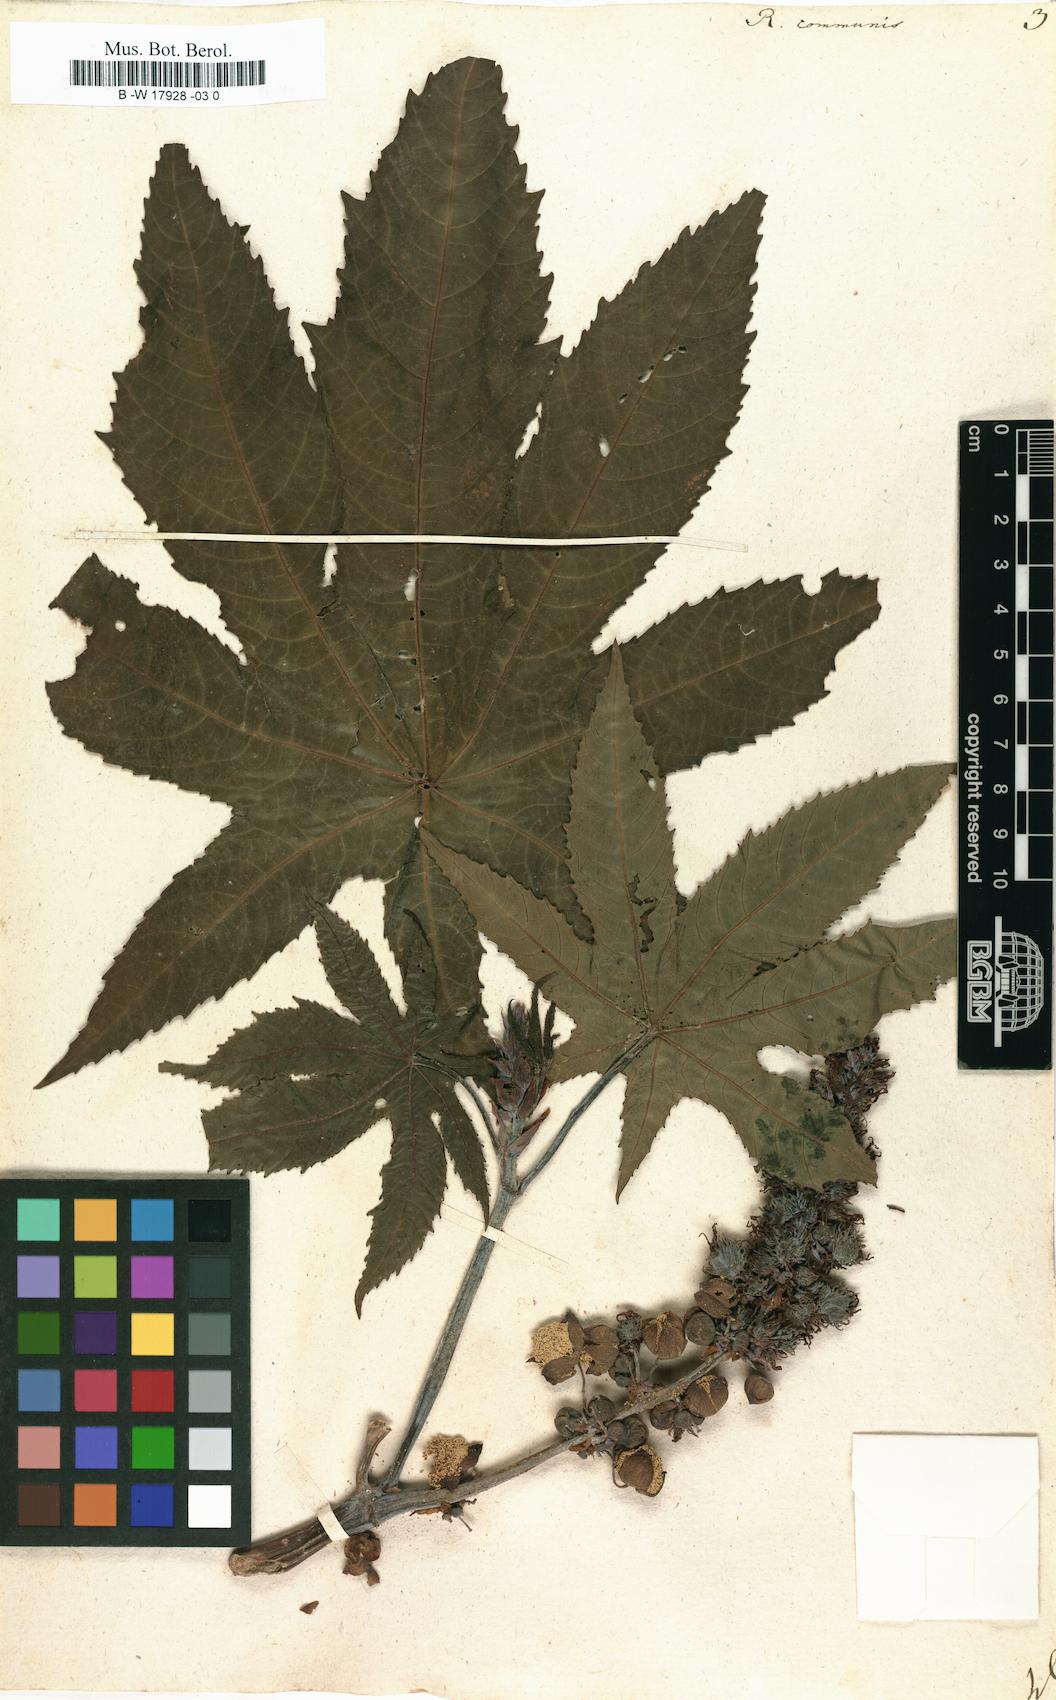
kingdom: Plantae
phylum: Tracheophyta
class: Magnoliopsida
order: Malpighiales
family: Euphorbiaceae
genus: Ricinus
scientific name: Ricinus communis
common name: Castor-oil-plant
